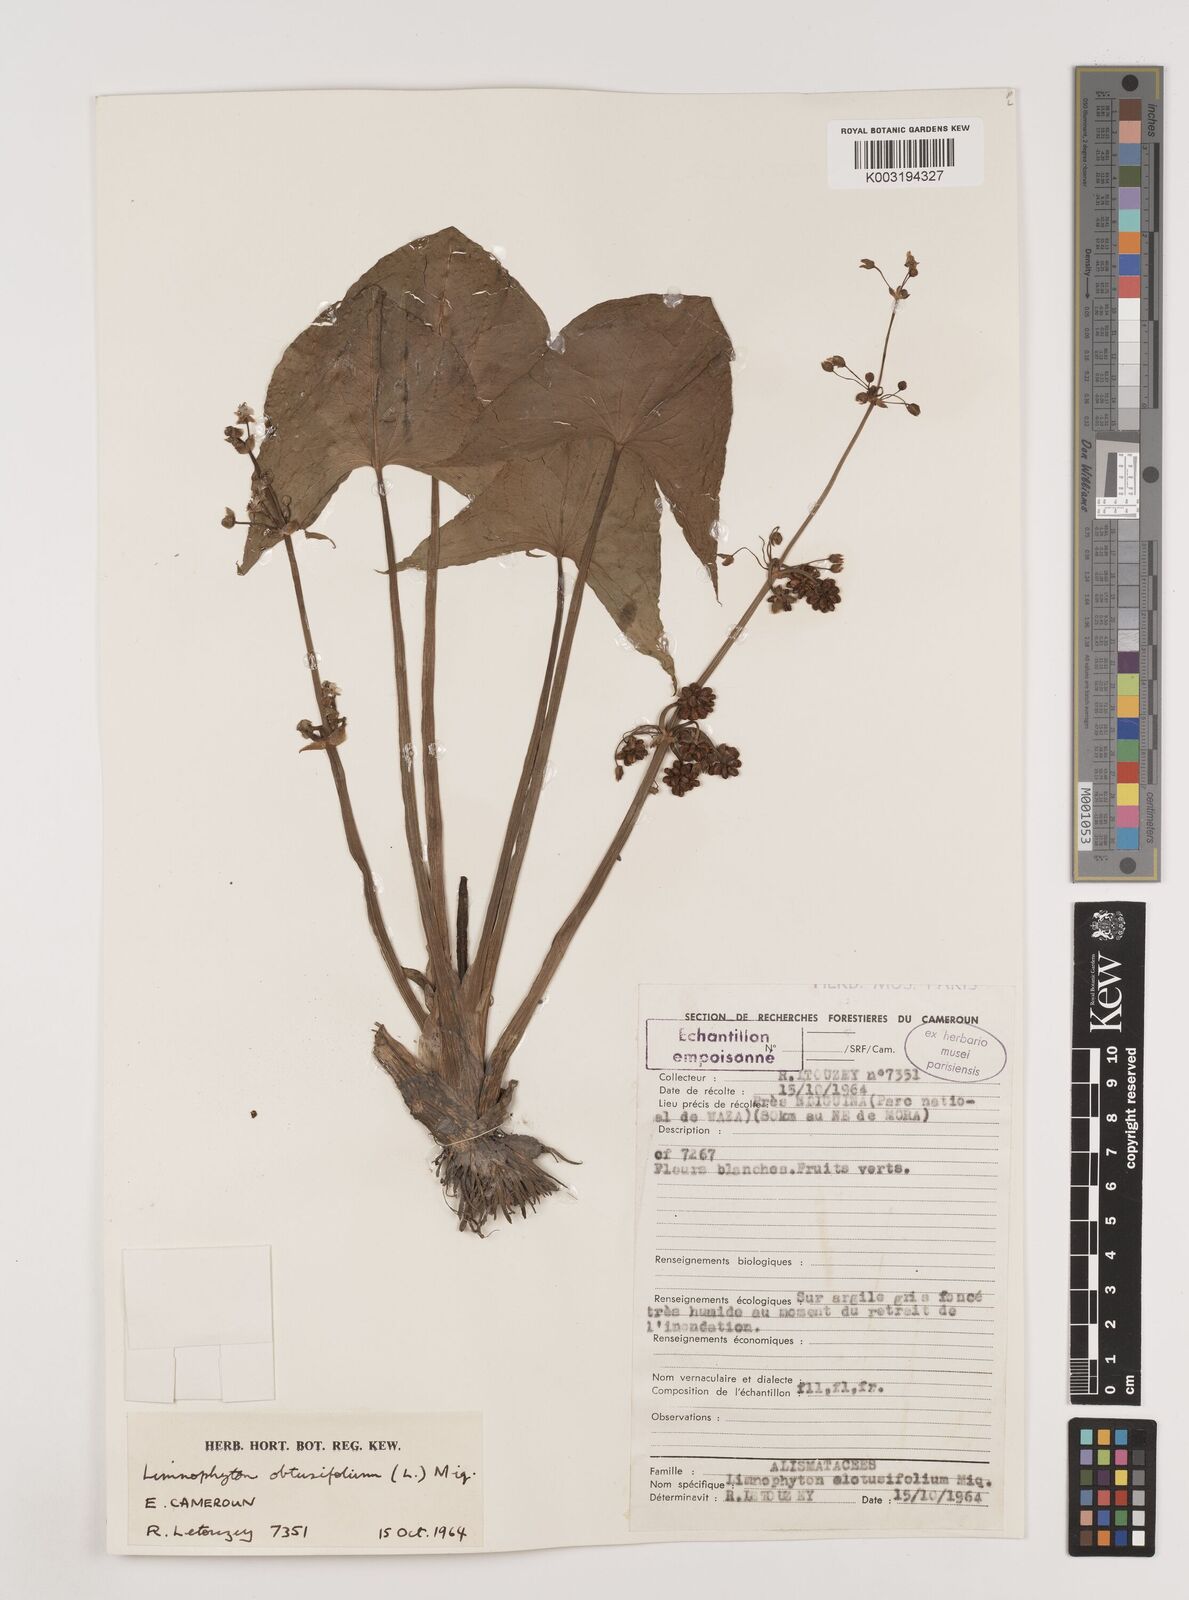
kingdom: Plantae
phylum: Tracheophyta
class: Liliopsida
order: Alismatales
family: Alismataceae
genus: Limnophyton
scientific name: Limnophyton obtusifolium
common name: Arrow head
